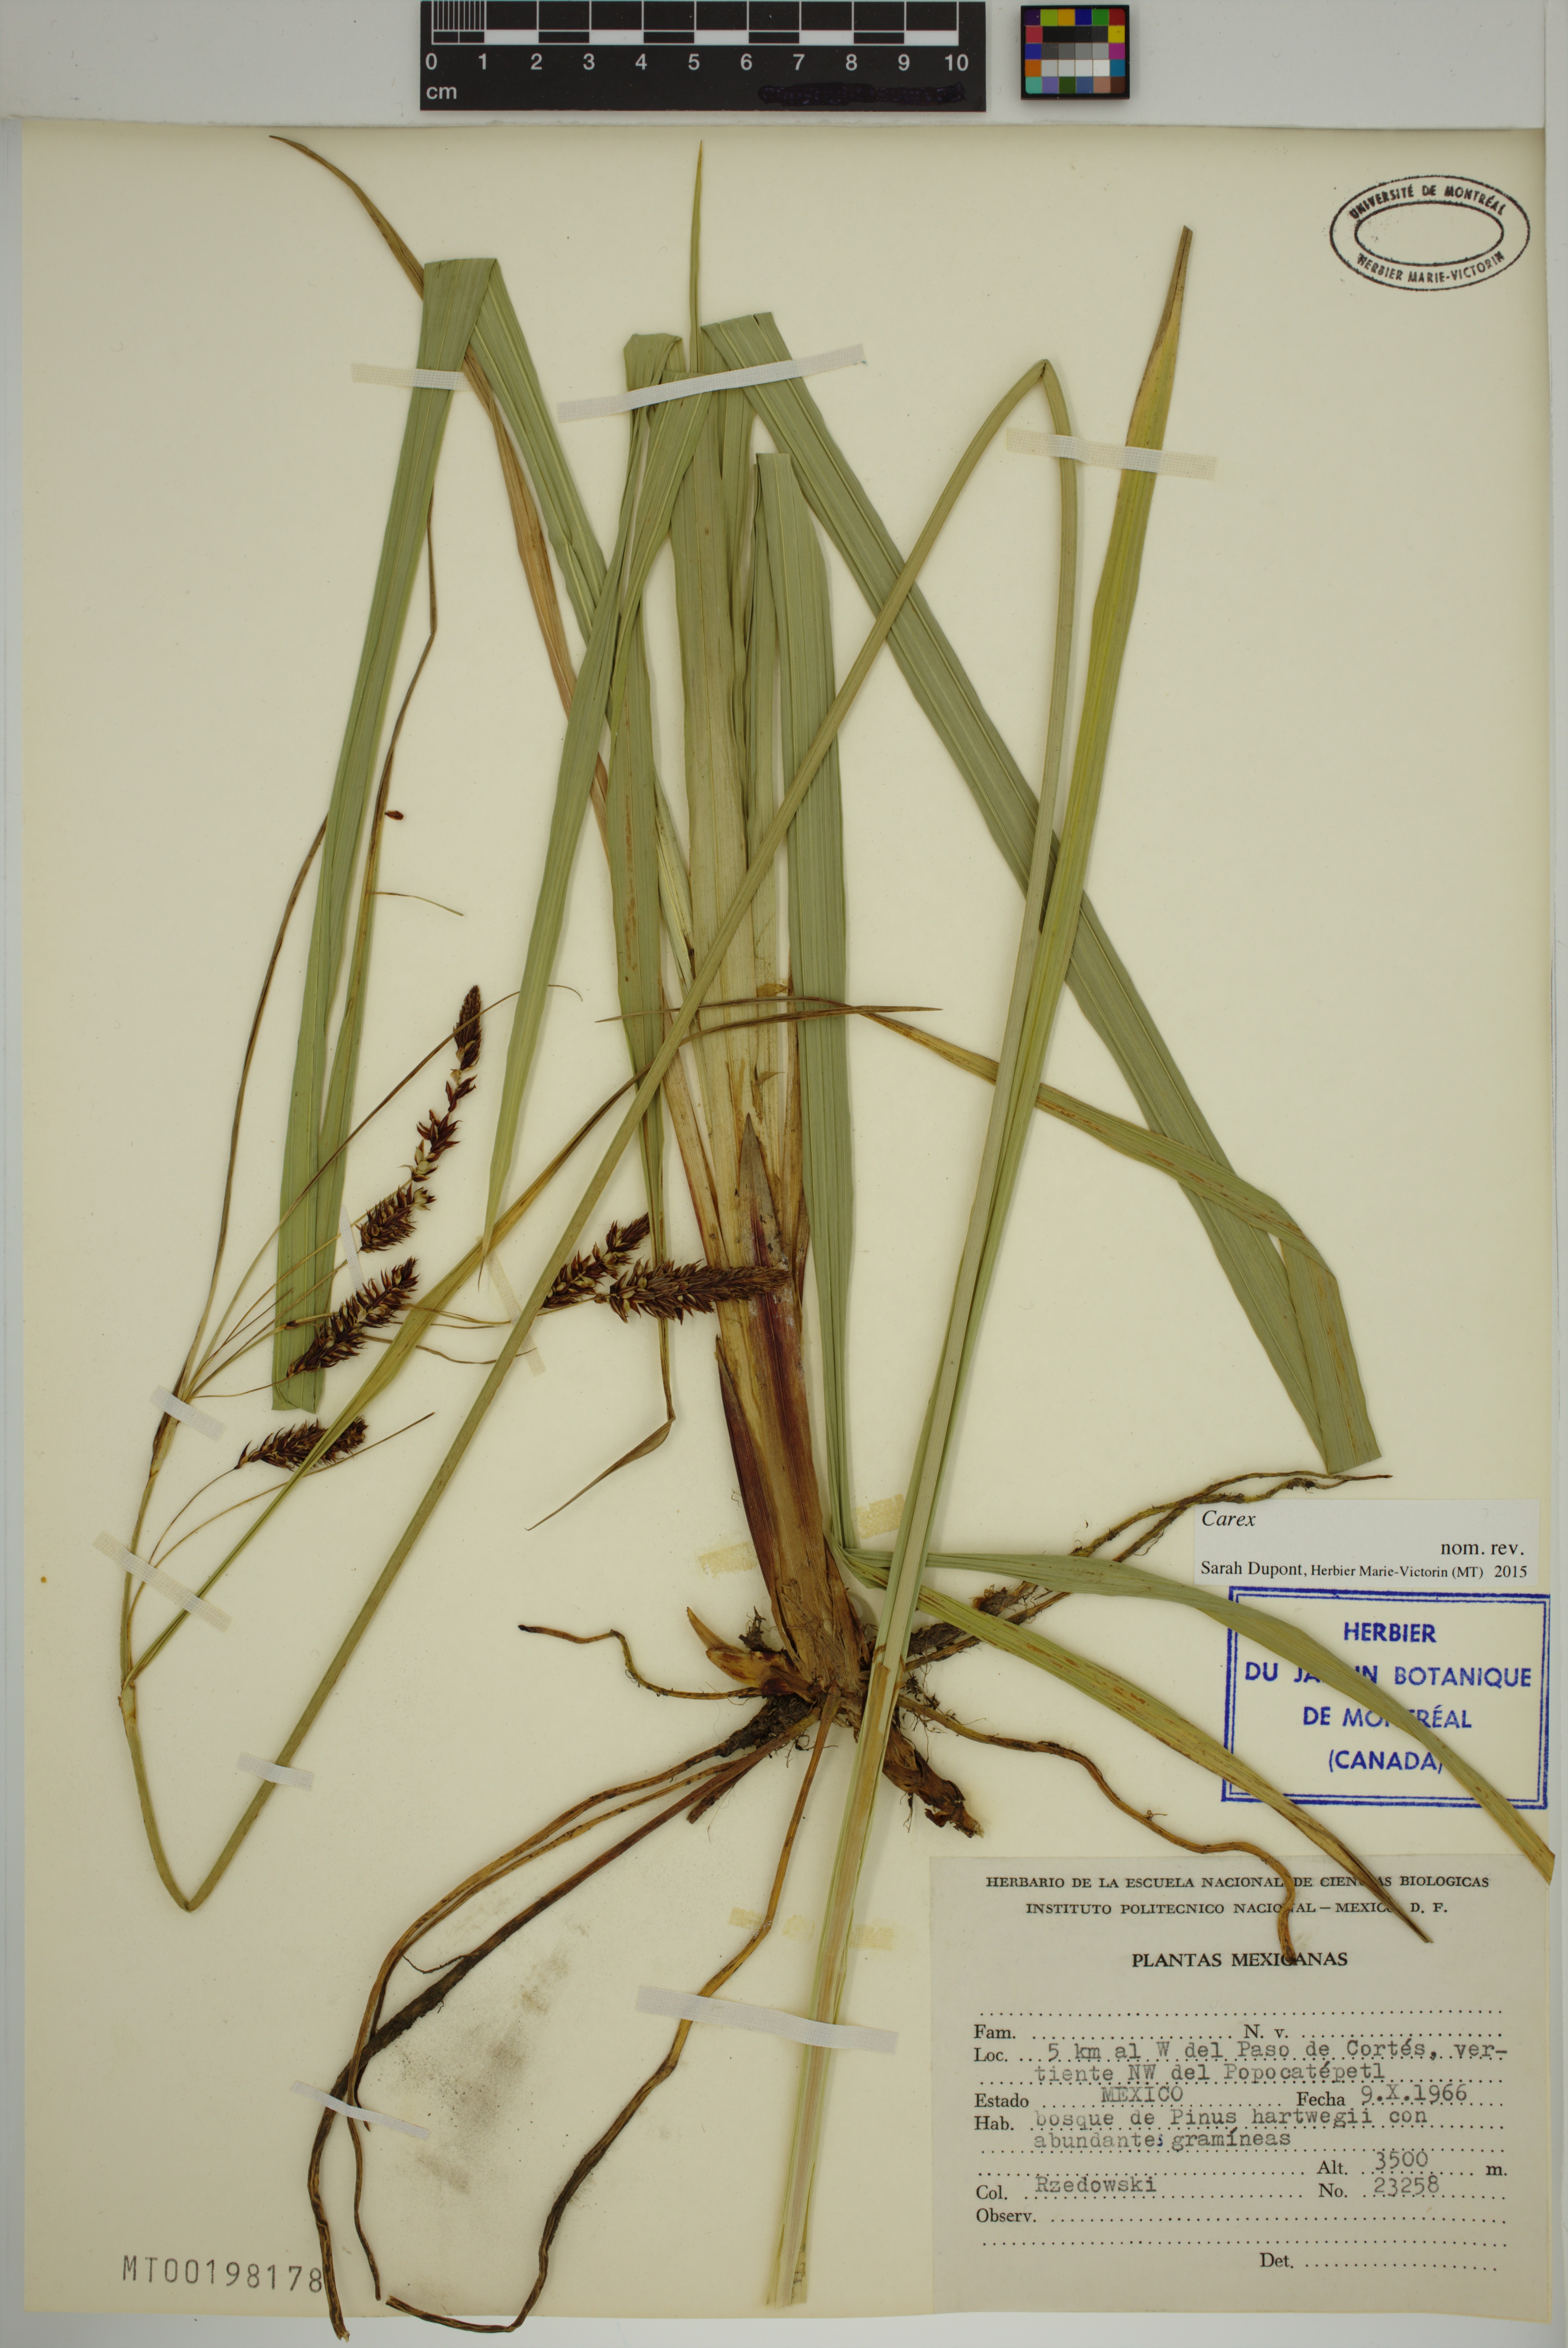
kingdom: Plantae
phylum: Tracheophyta
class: Liliopsida
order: Poales
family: Cyperaceae
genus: Carex
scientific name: Carex
